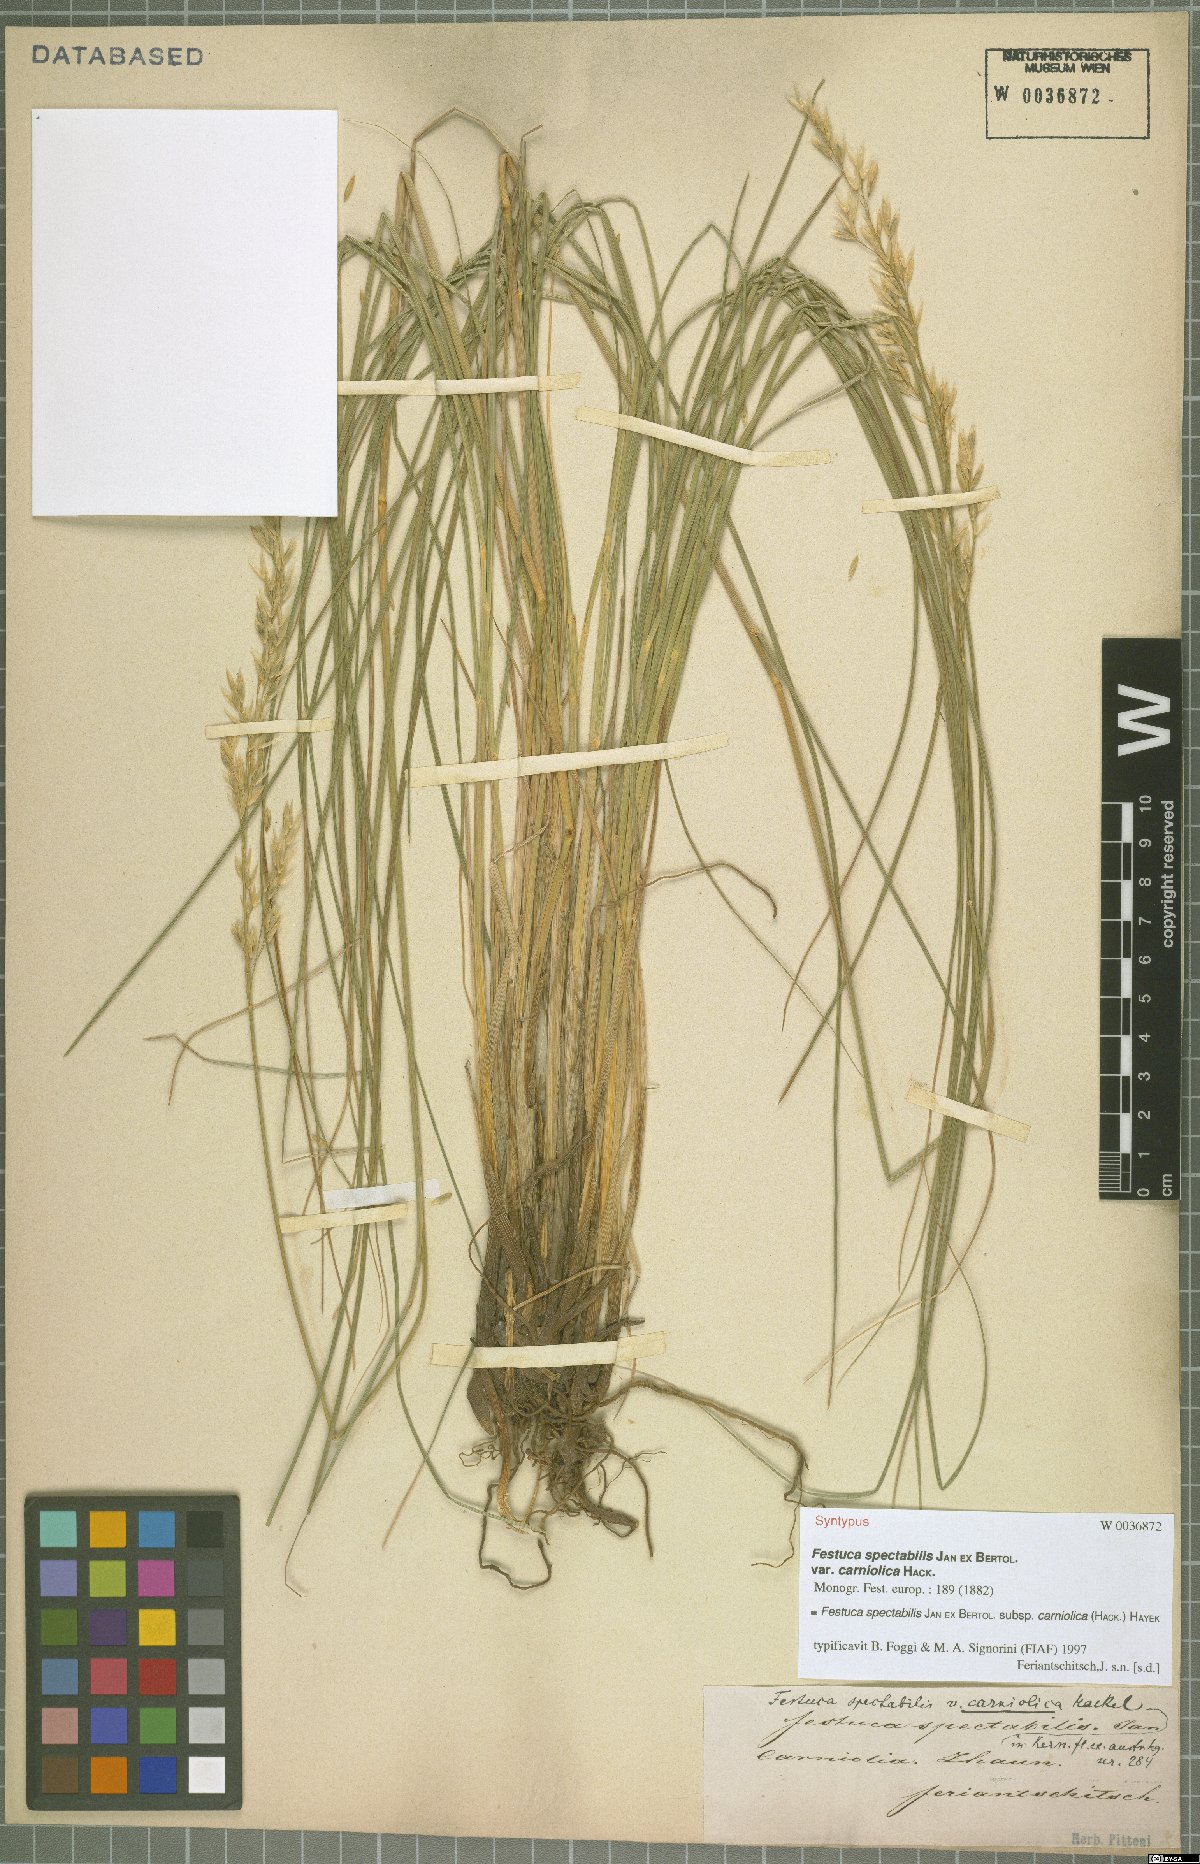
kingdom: Plantae
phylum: Tracheophyta
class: Liliopsida
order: Poales
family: Poaceae
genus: Festuca
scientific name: Festuca spectabilis
